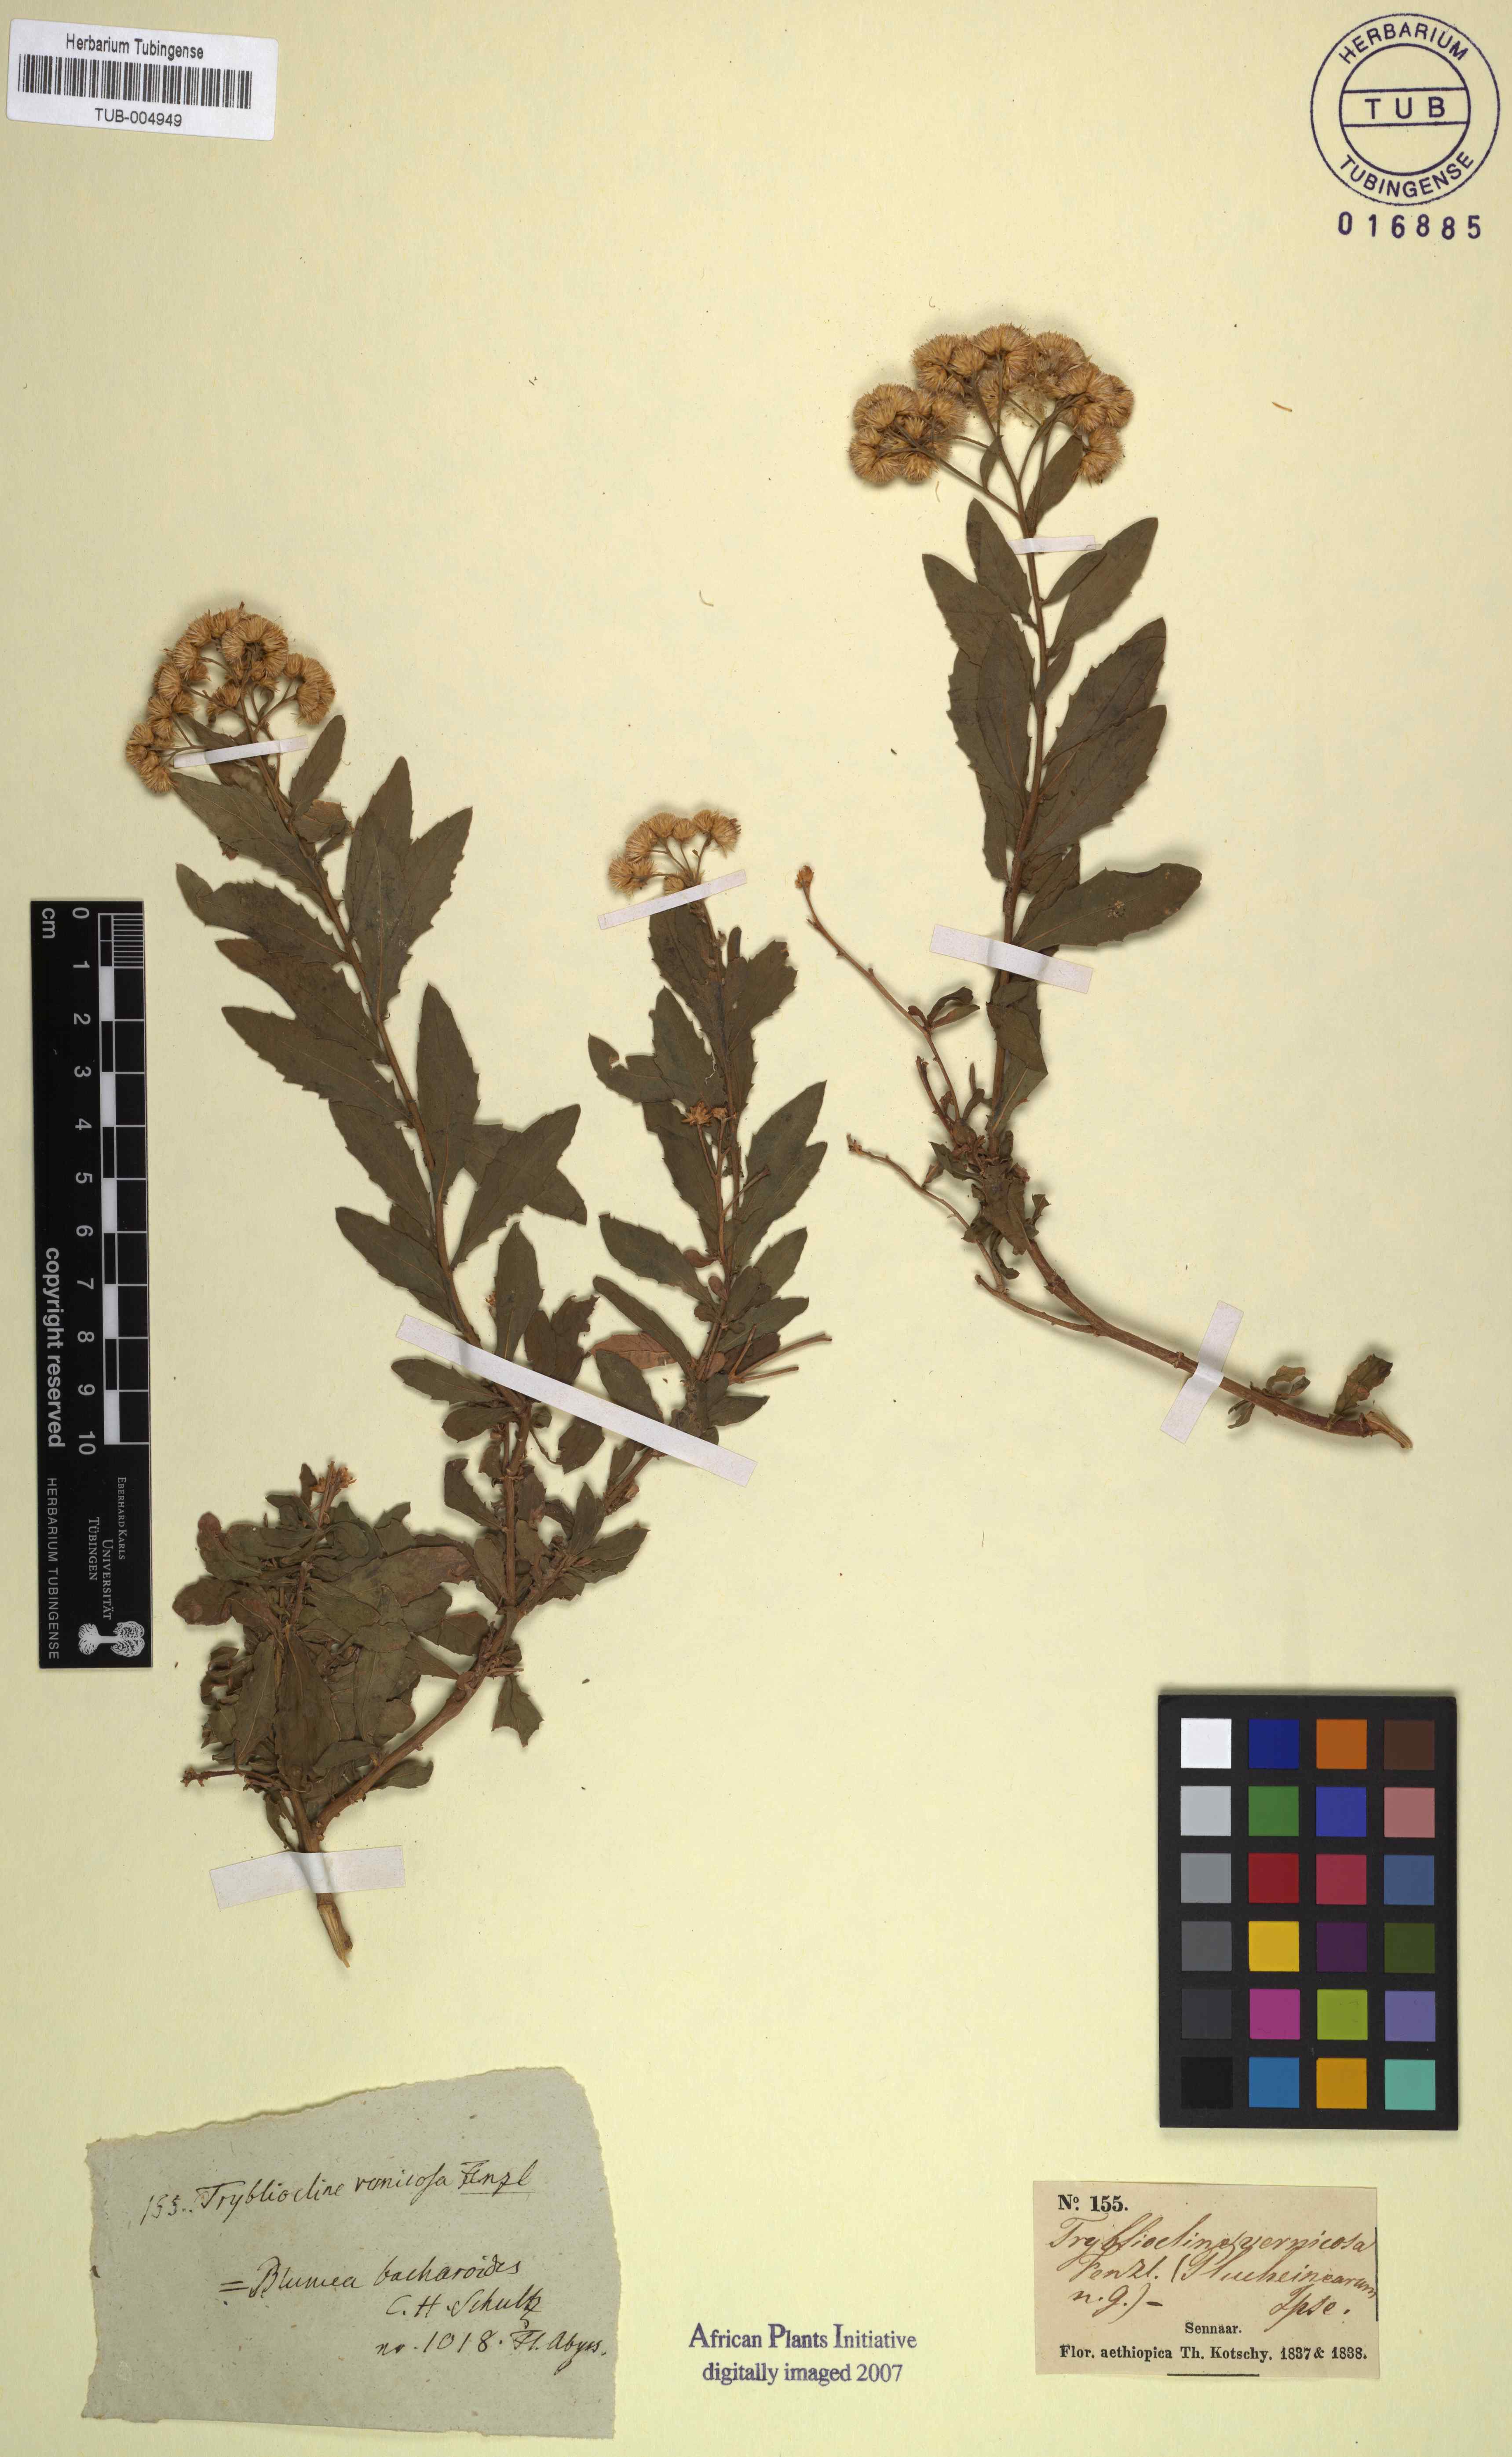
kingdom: Plantae
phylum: Tracheophyta
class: Magnoliopsida
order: Asterales
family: Asteraceae
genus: Blumea
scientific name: Blumea
